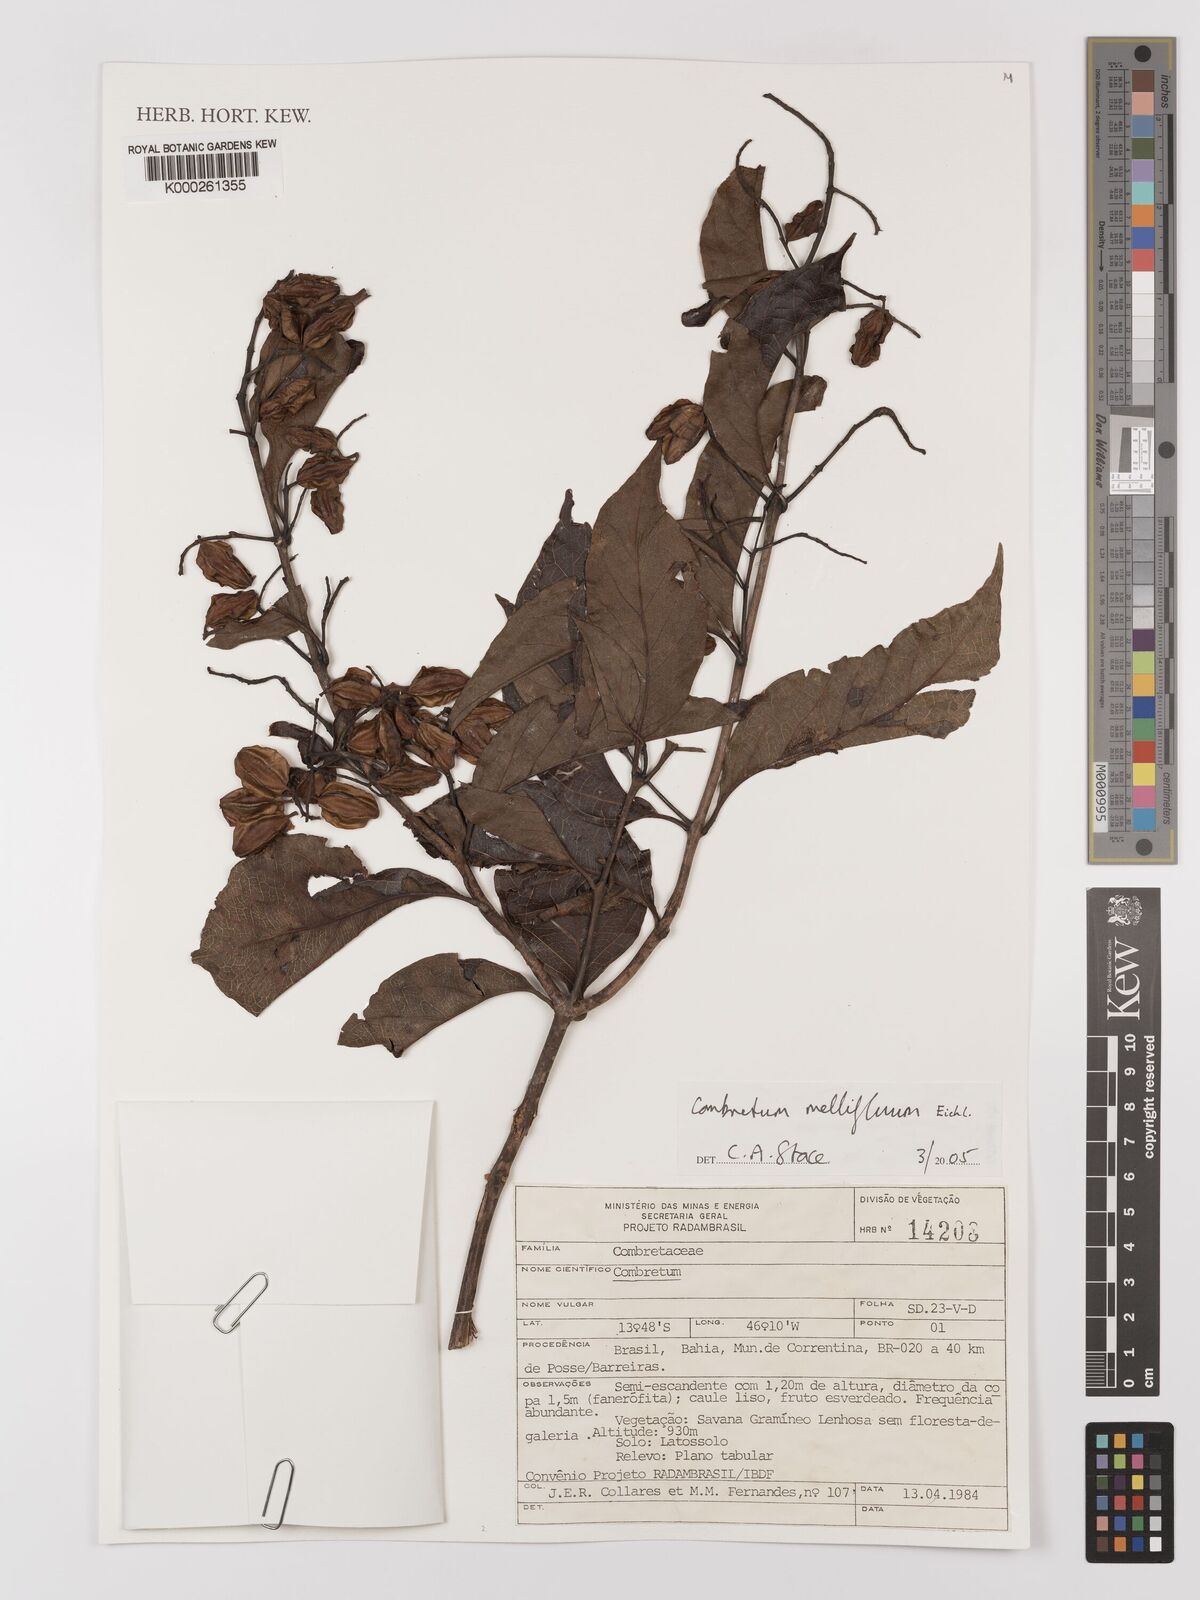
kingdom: Plantae
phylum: Tracheophyta
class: Magnoliopsida
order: Myrtales
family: Combretaceae
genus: Combretum
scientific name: Combretum mellifluum
